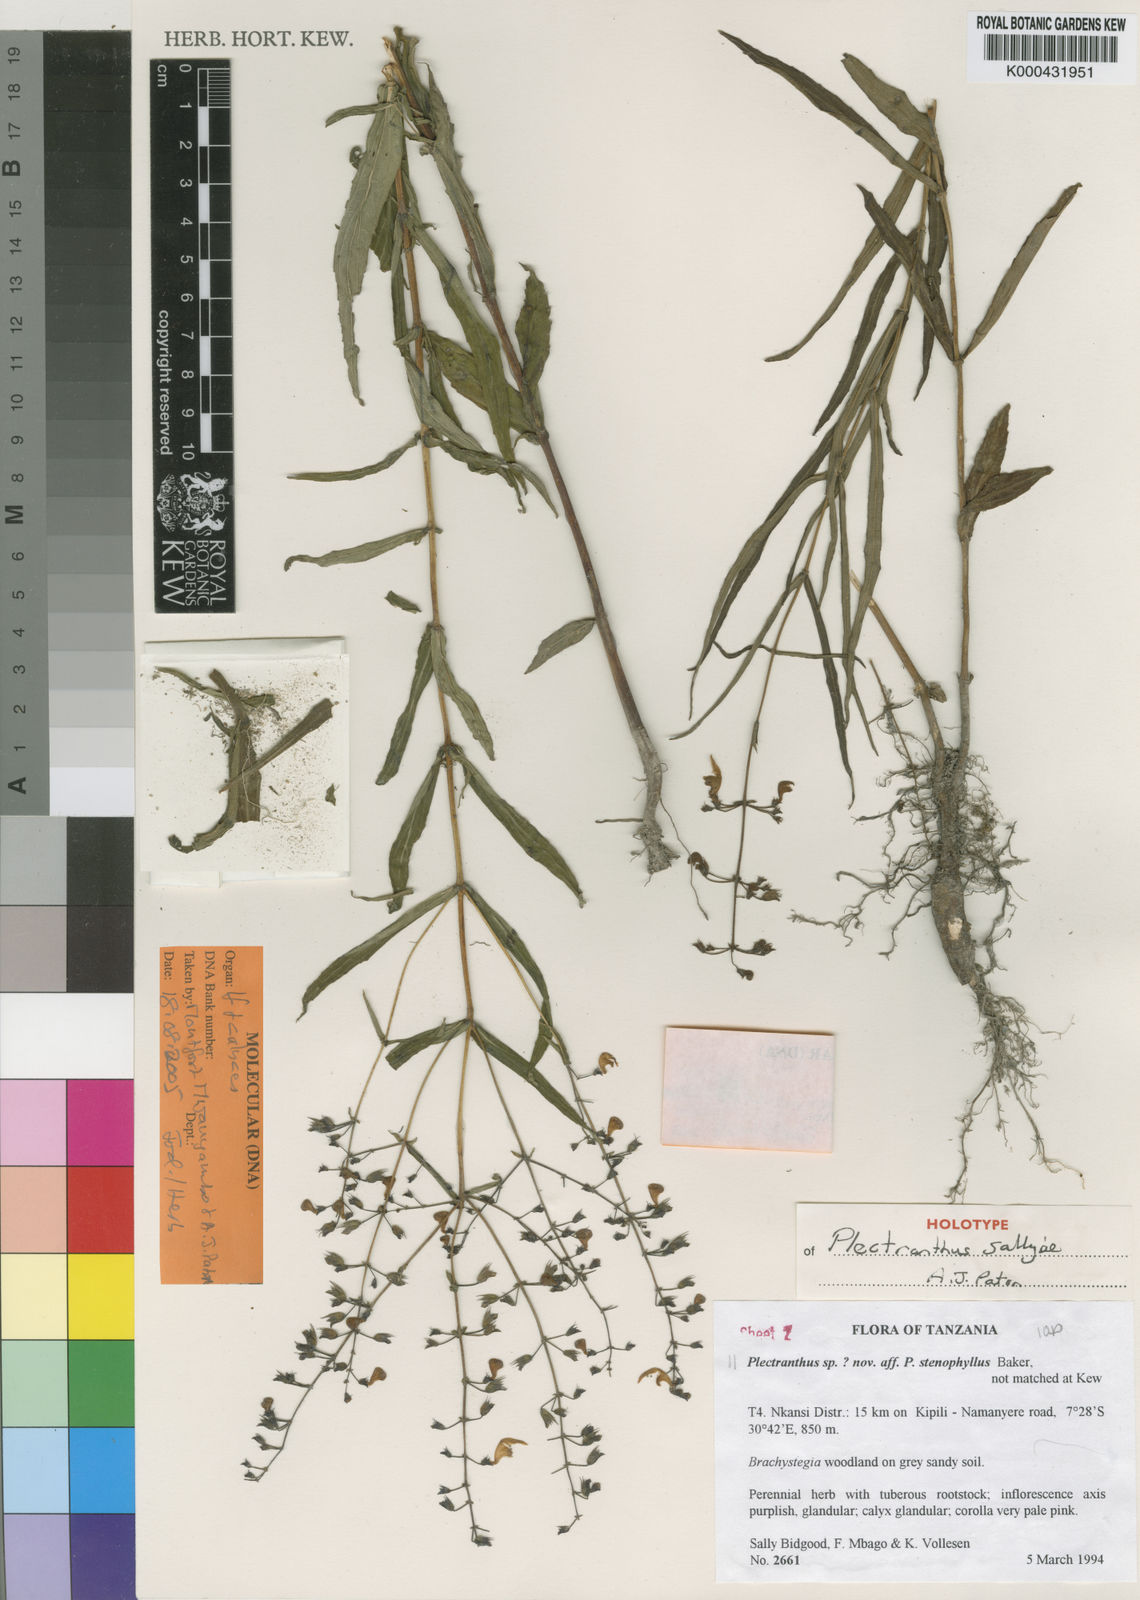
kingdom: Plantae
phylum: Tracheophyta
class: Magnoliopsida
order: Lamiales
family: Lamiaceae
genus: Coleus
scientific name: Coleus sallyae
